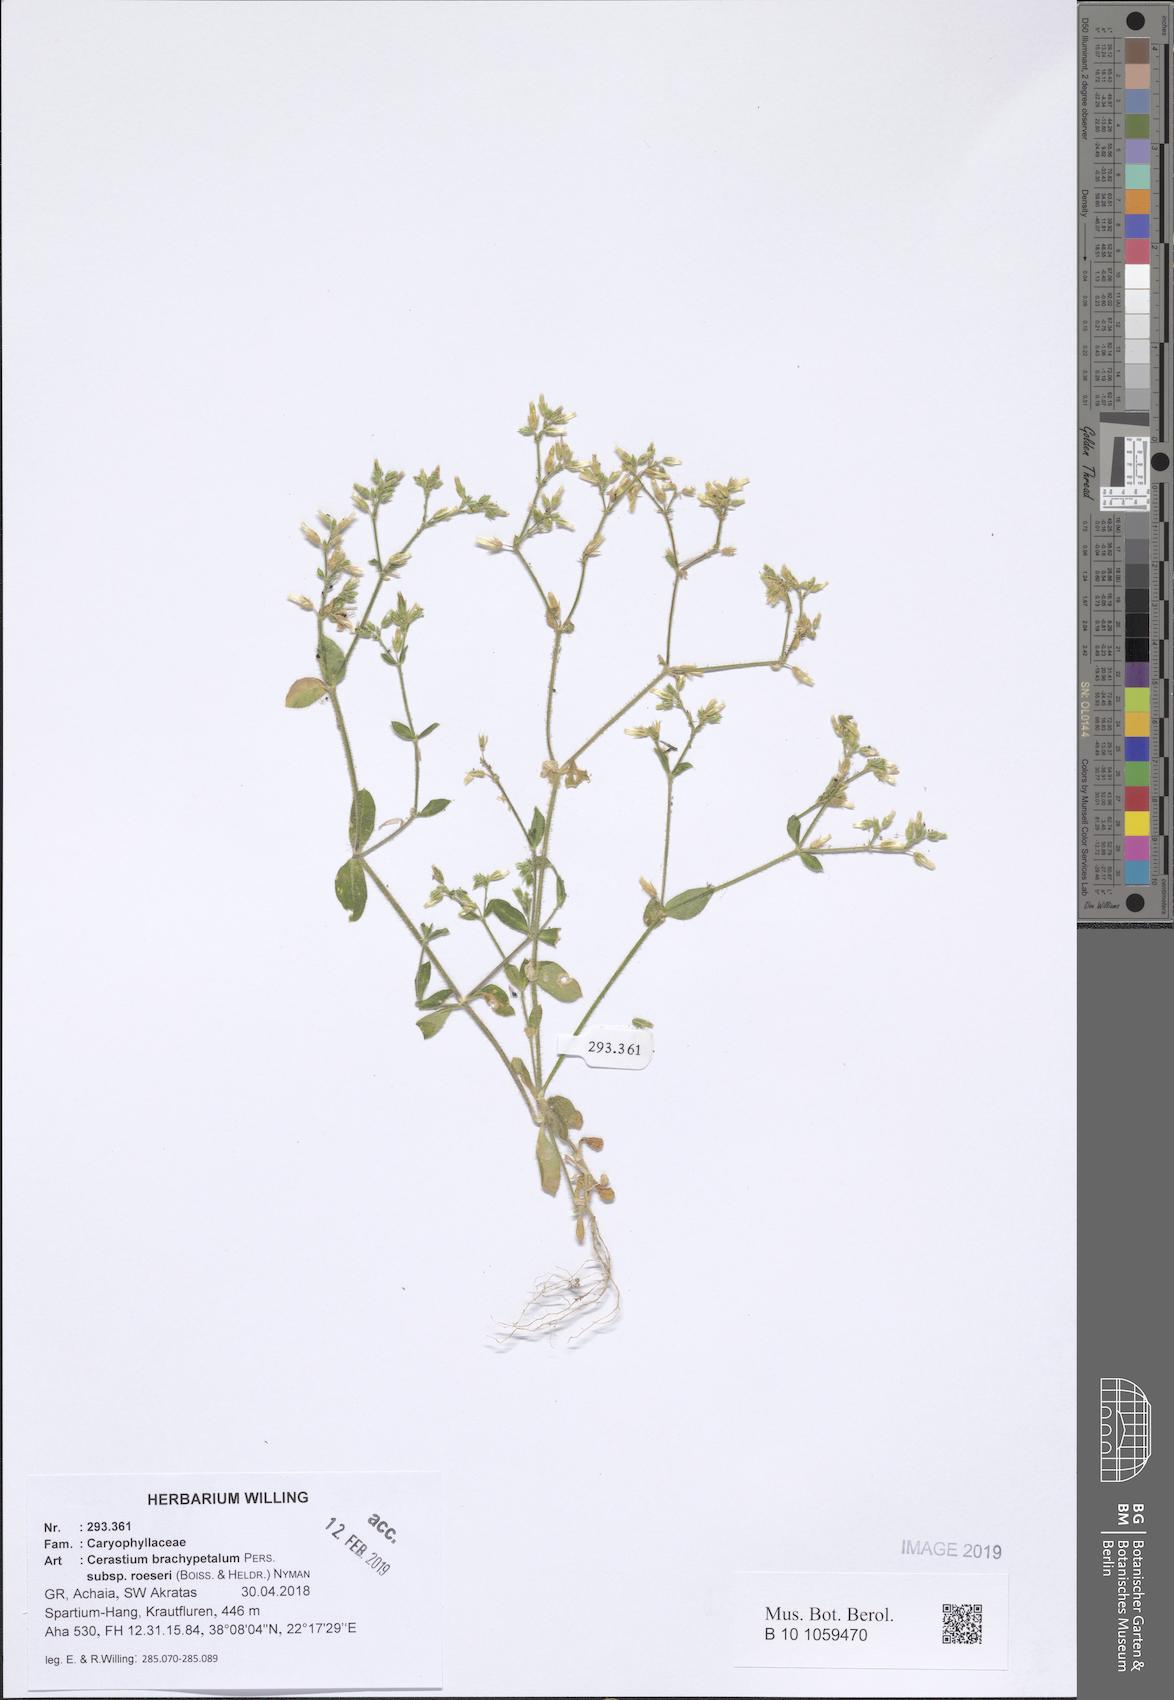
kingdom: Plantae
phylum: Tracheophyta
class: Magnoliopsida
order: Caryophyllales
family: Caryophyllaceae
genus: Cerastium
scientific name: Cerastium brachypetalum
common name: Grey mouse-ear
